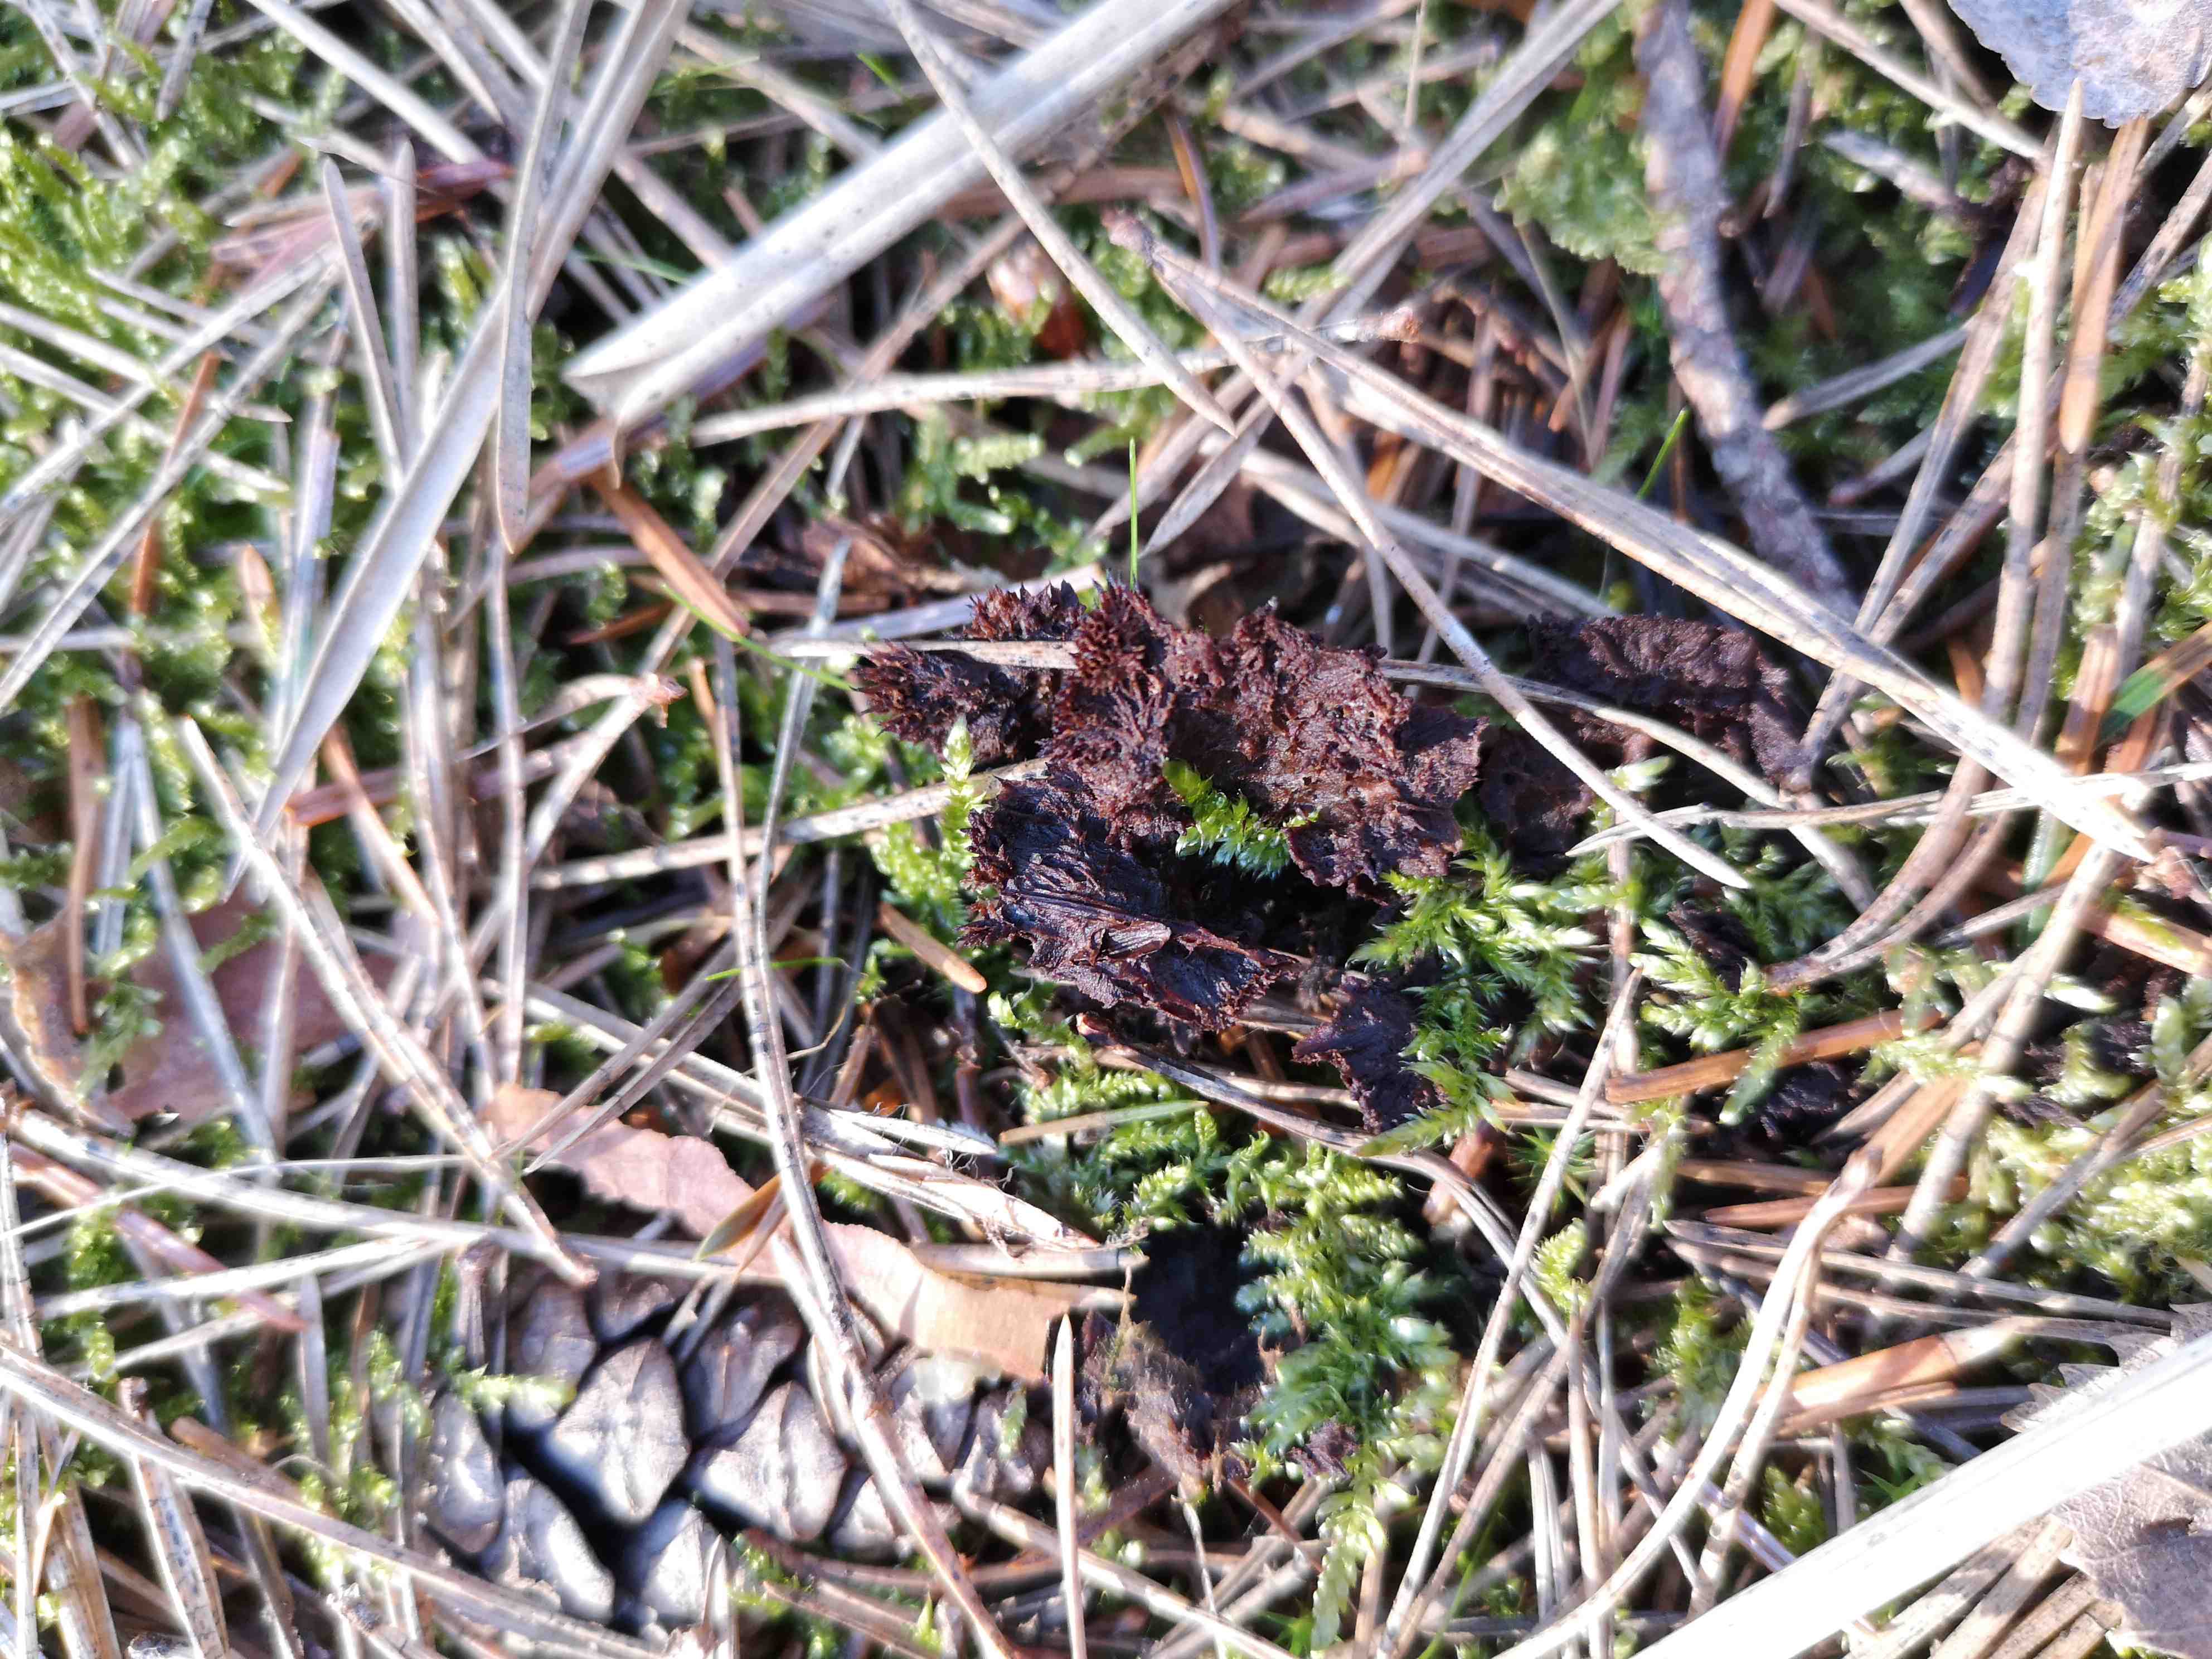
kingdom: Fungi
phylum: Basidiomycota
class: Agaricomycetes
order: Thelephorales
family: Thelephoraceae
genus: Thelephora
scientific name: Thelephora terrestris
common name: fliget frynsesvamp
